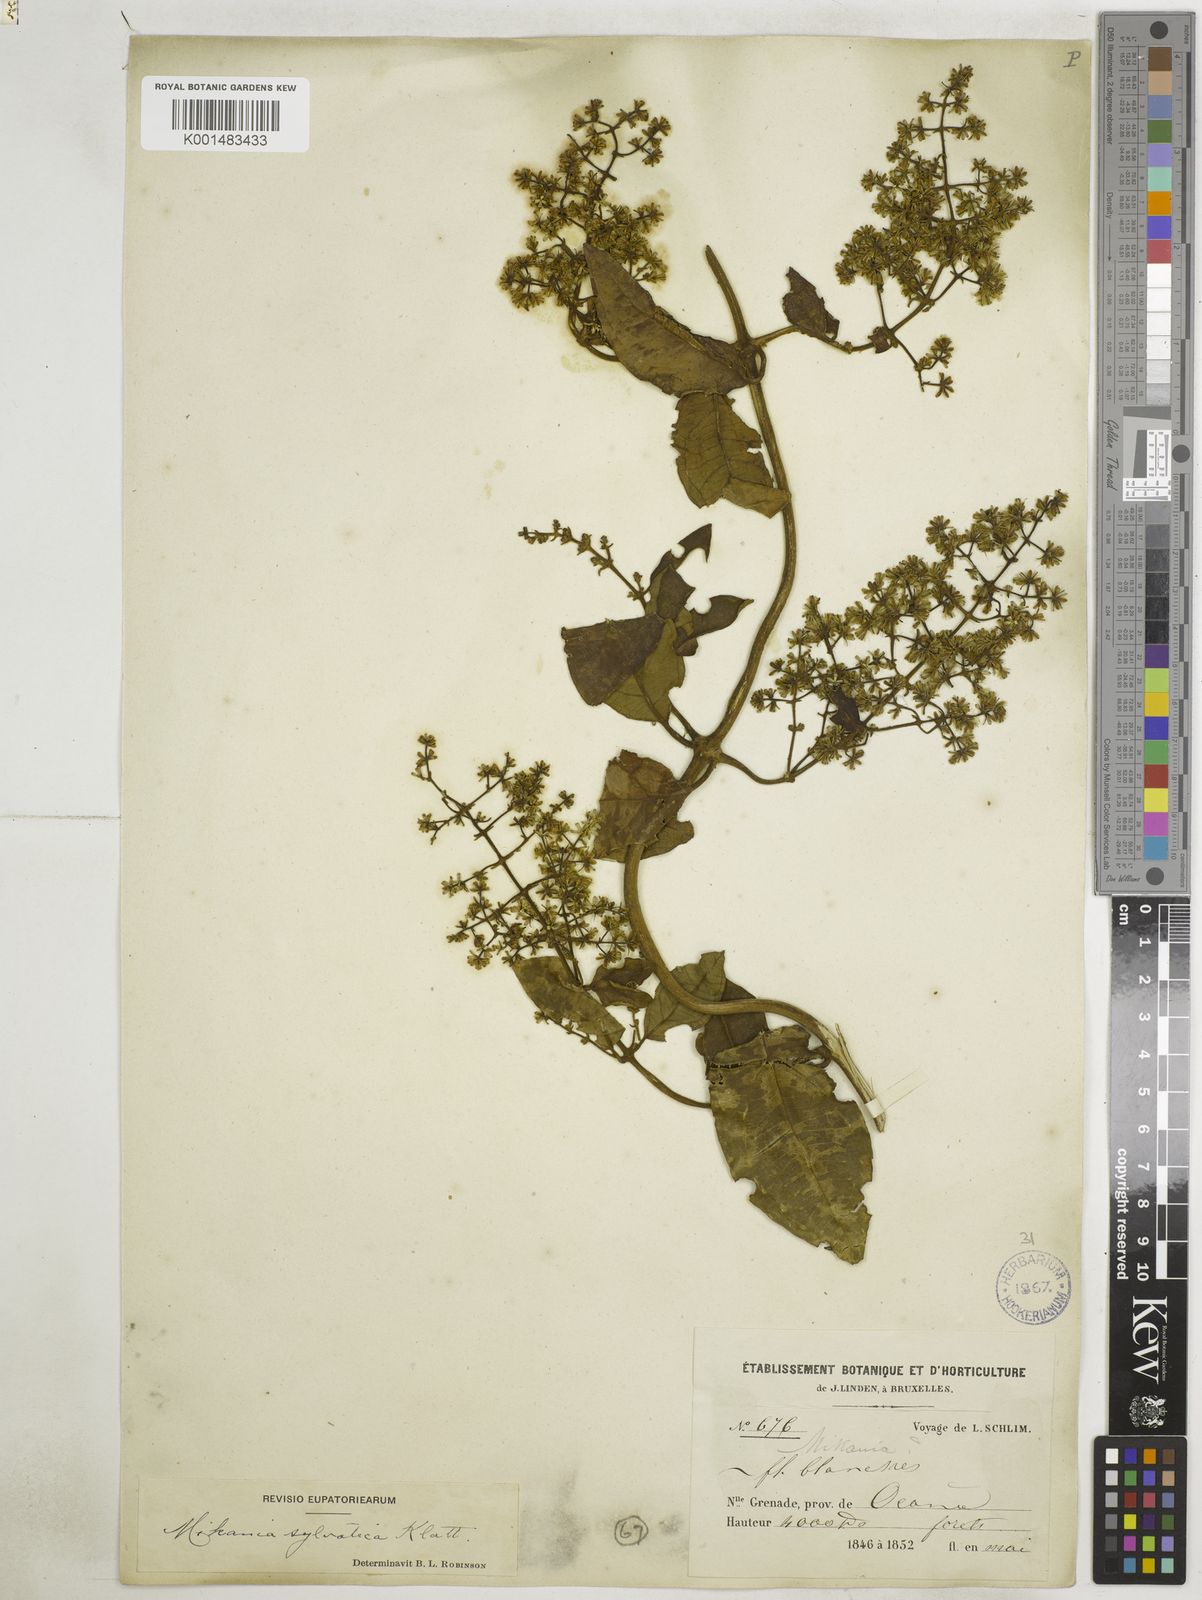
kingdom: Plantae
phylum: Tracheophyta
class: Magnoliopsida
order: Asterales
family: Asteraceae
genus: Mikania
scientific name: Mikania sylvatica
